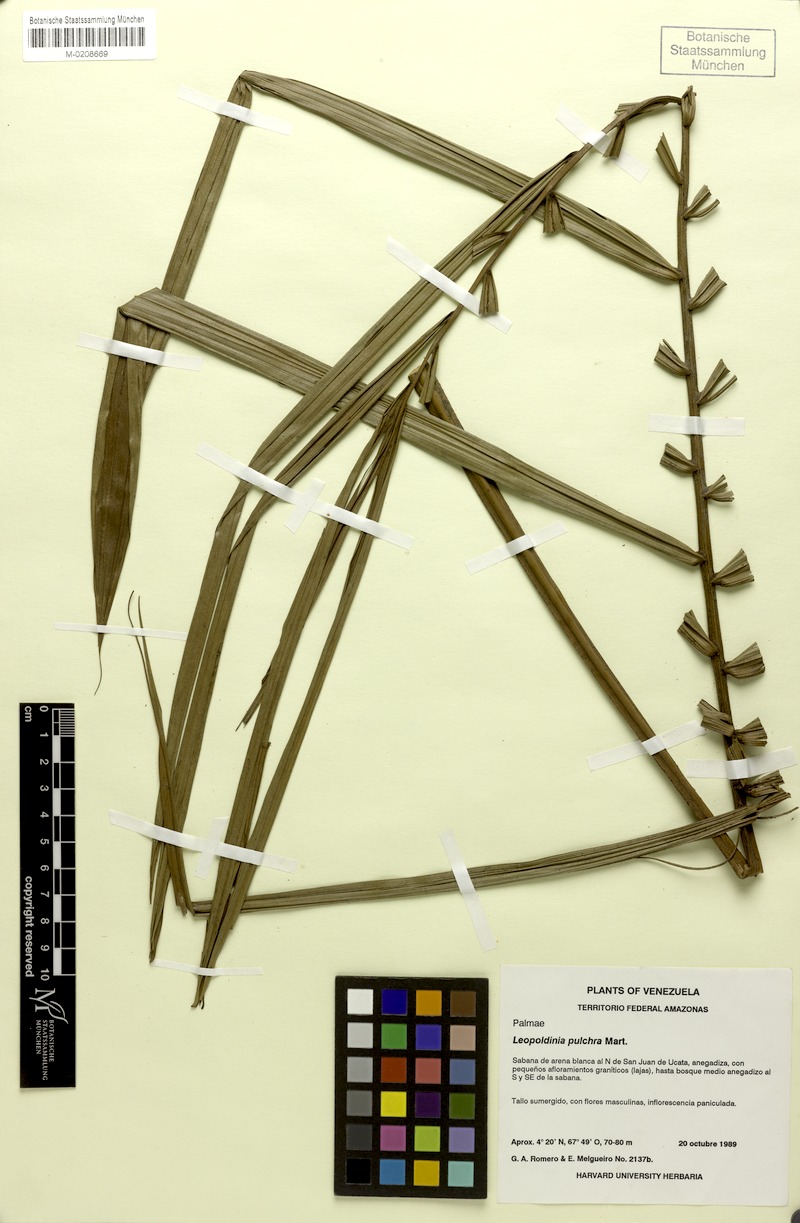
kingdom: Plantae
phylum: Tracheophyta
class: Liliopsida
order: Arecales
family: Arecaceae
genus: Leopoldinia
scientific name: Leopoldinia pulchra
